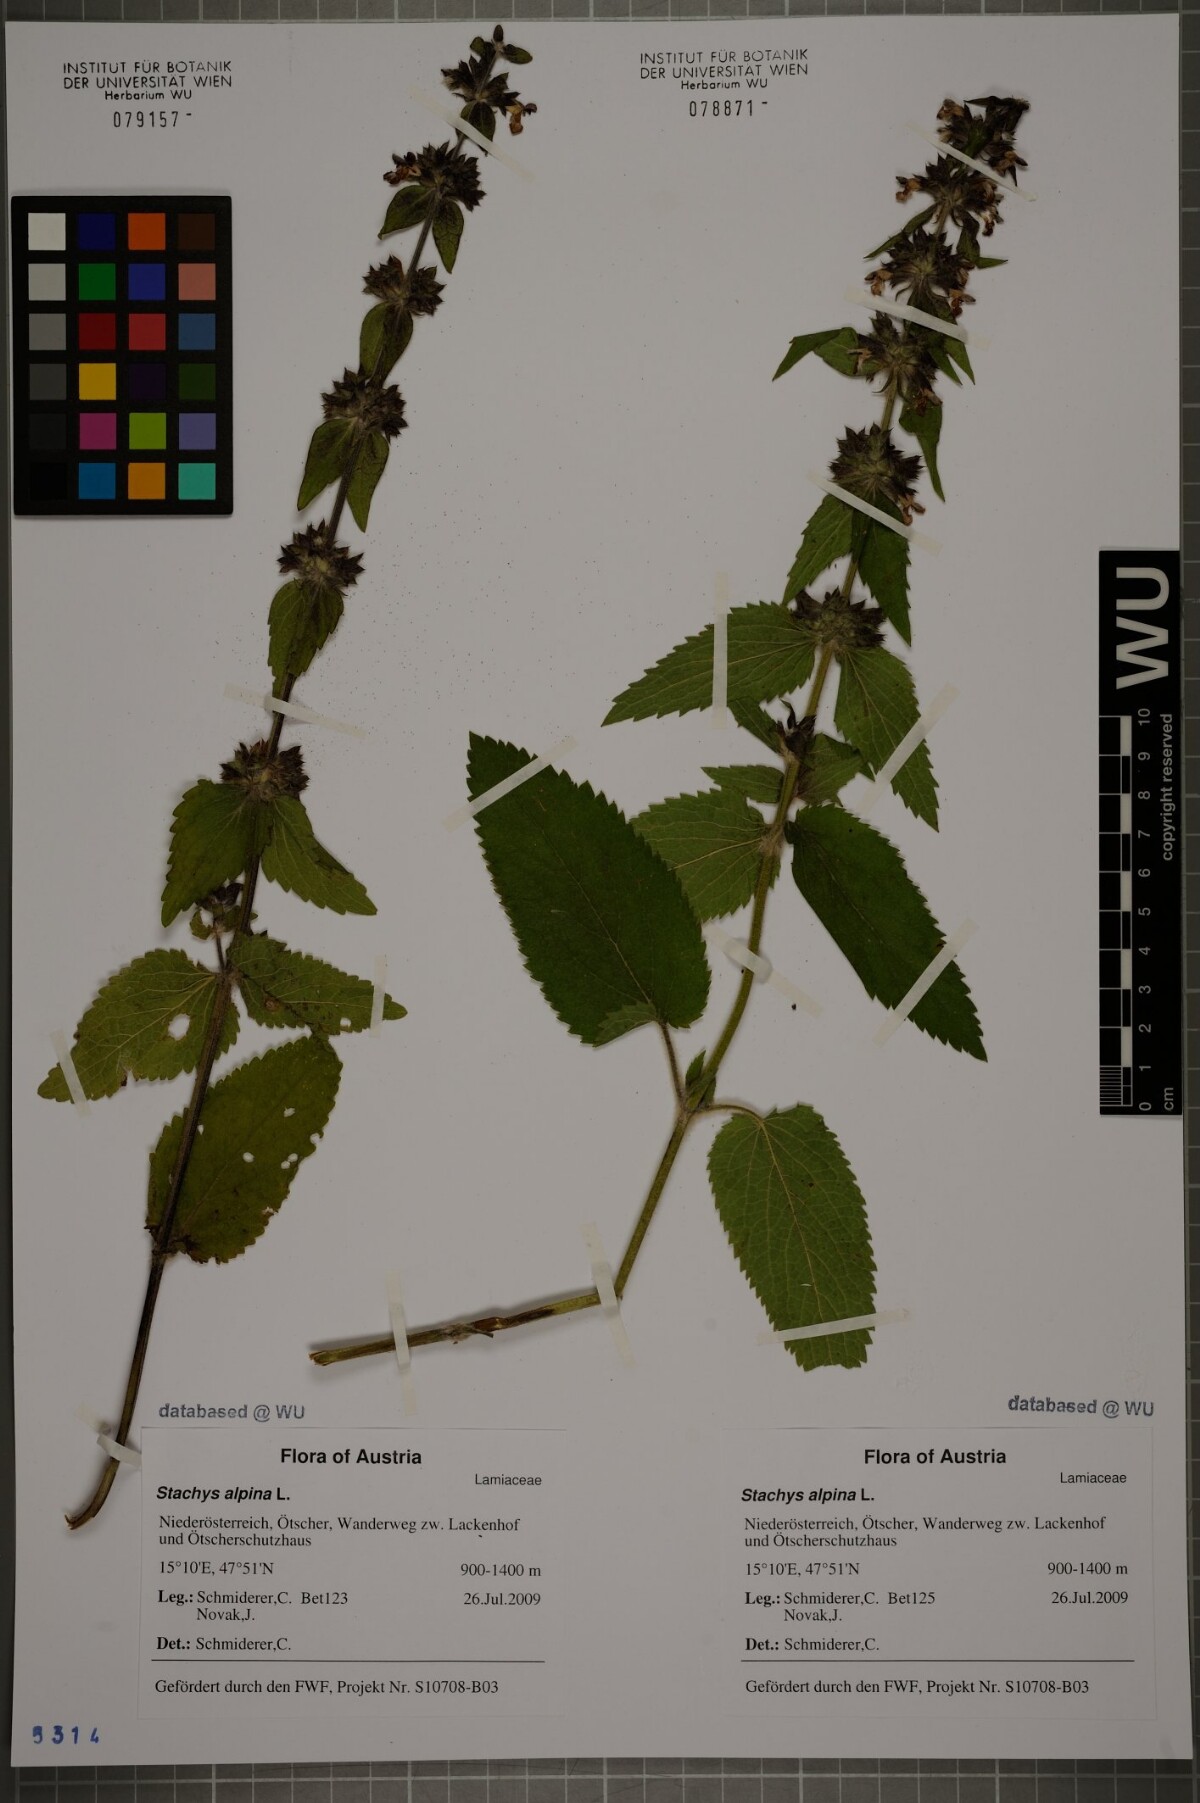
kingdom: Plantae
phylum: Tracheophyta
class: Magnoliopsida
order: Lamiales
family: Lamiaceae
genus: Stachys
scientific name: Stachys alpina
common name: Limestone woundwort
